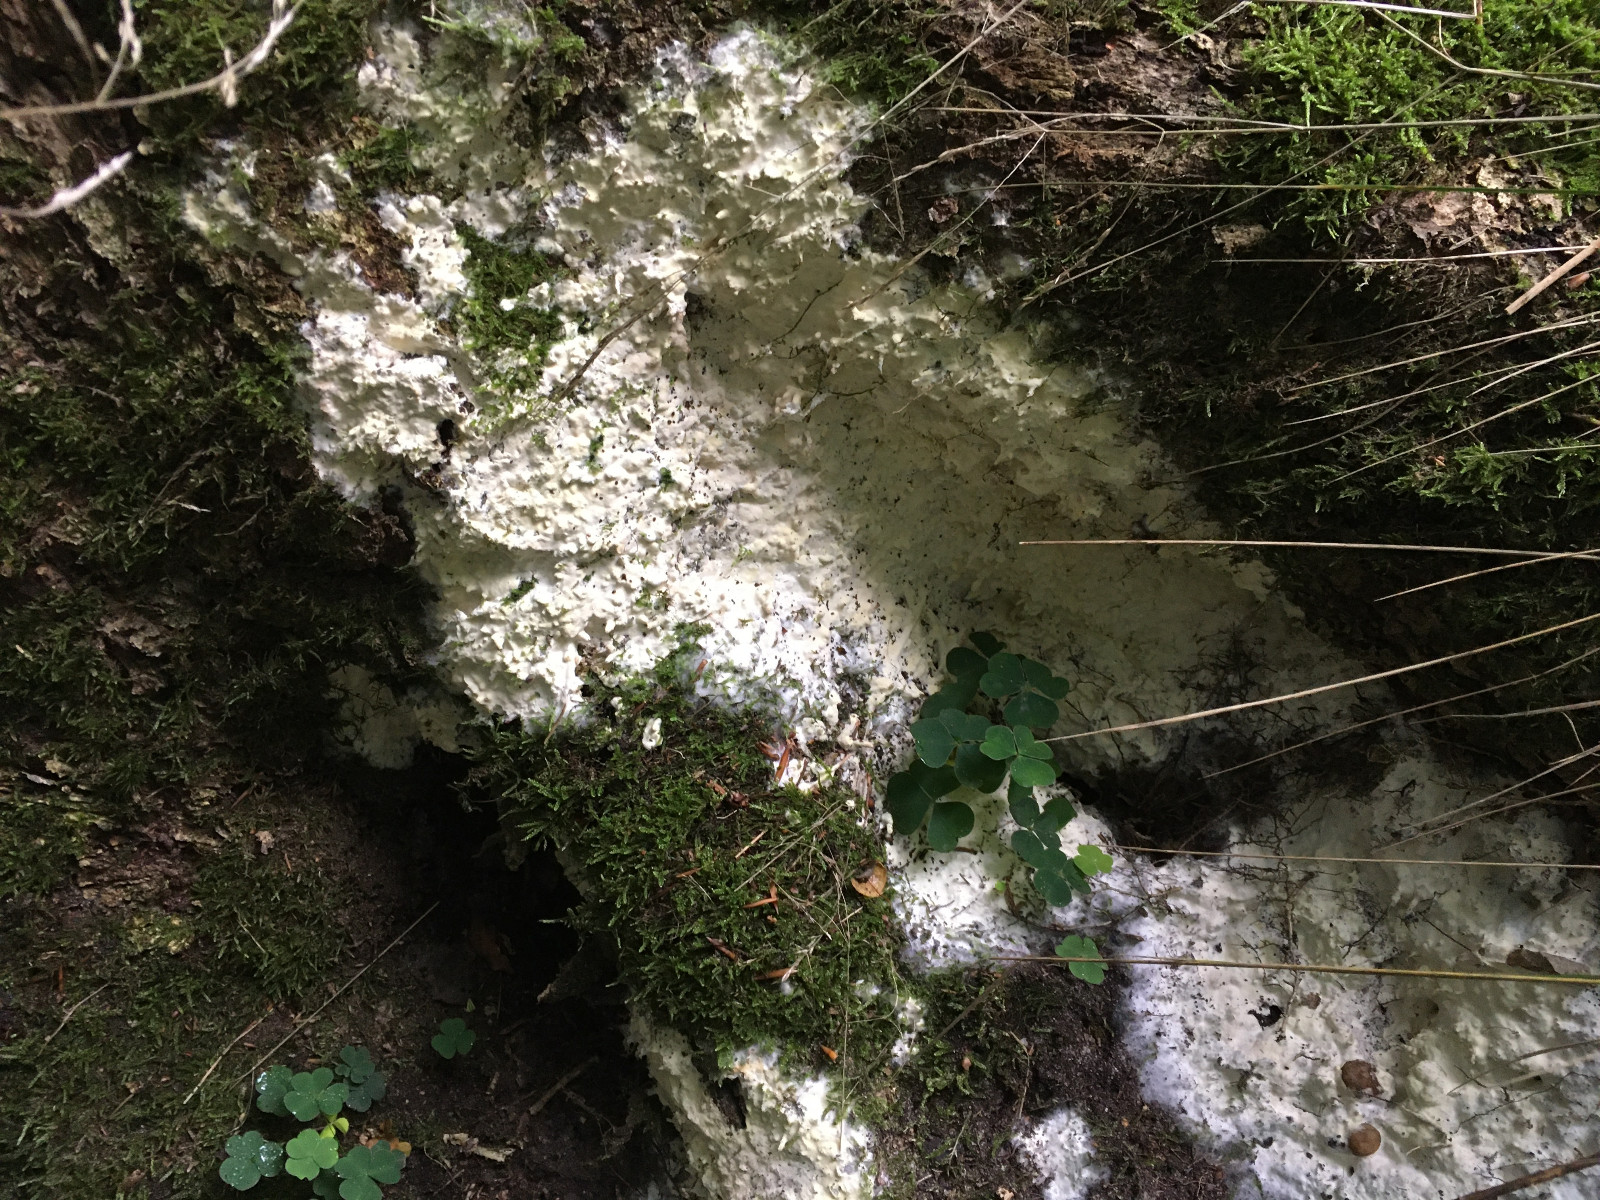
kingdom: Fungi
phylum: Ascomycota
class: Sordariomycetes
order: Hypocreales
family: Hypocreaceae
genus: Trichoderma
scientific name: Trichoderma citrinum
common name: udbredt kødkerne
